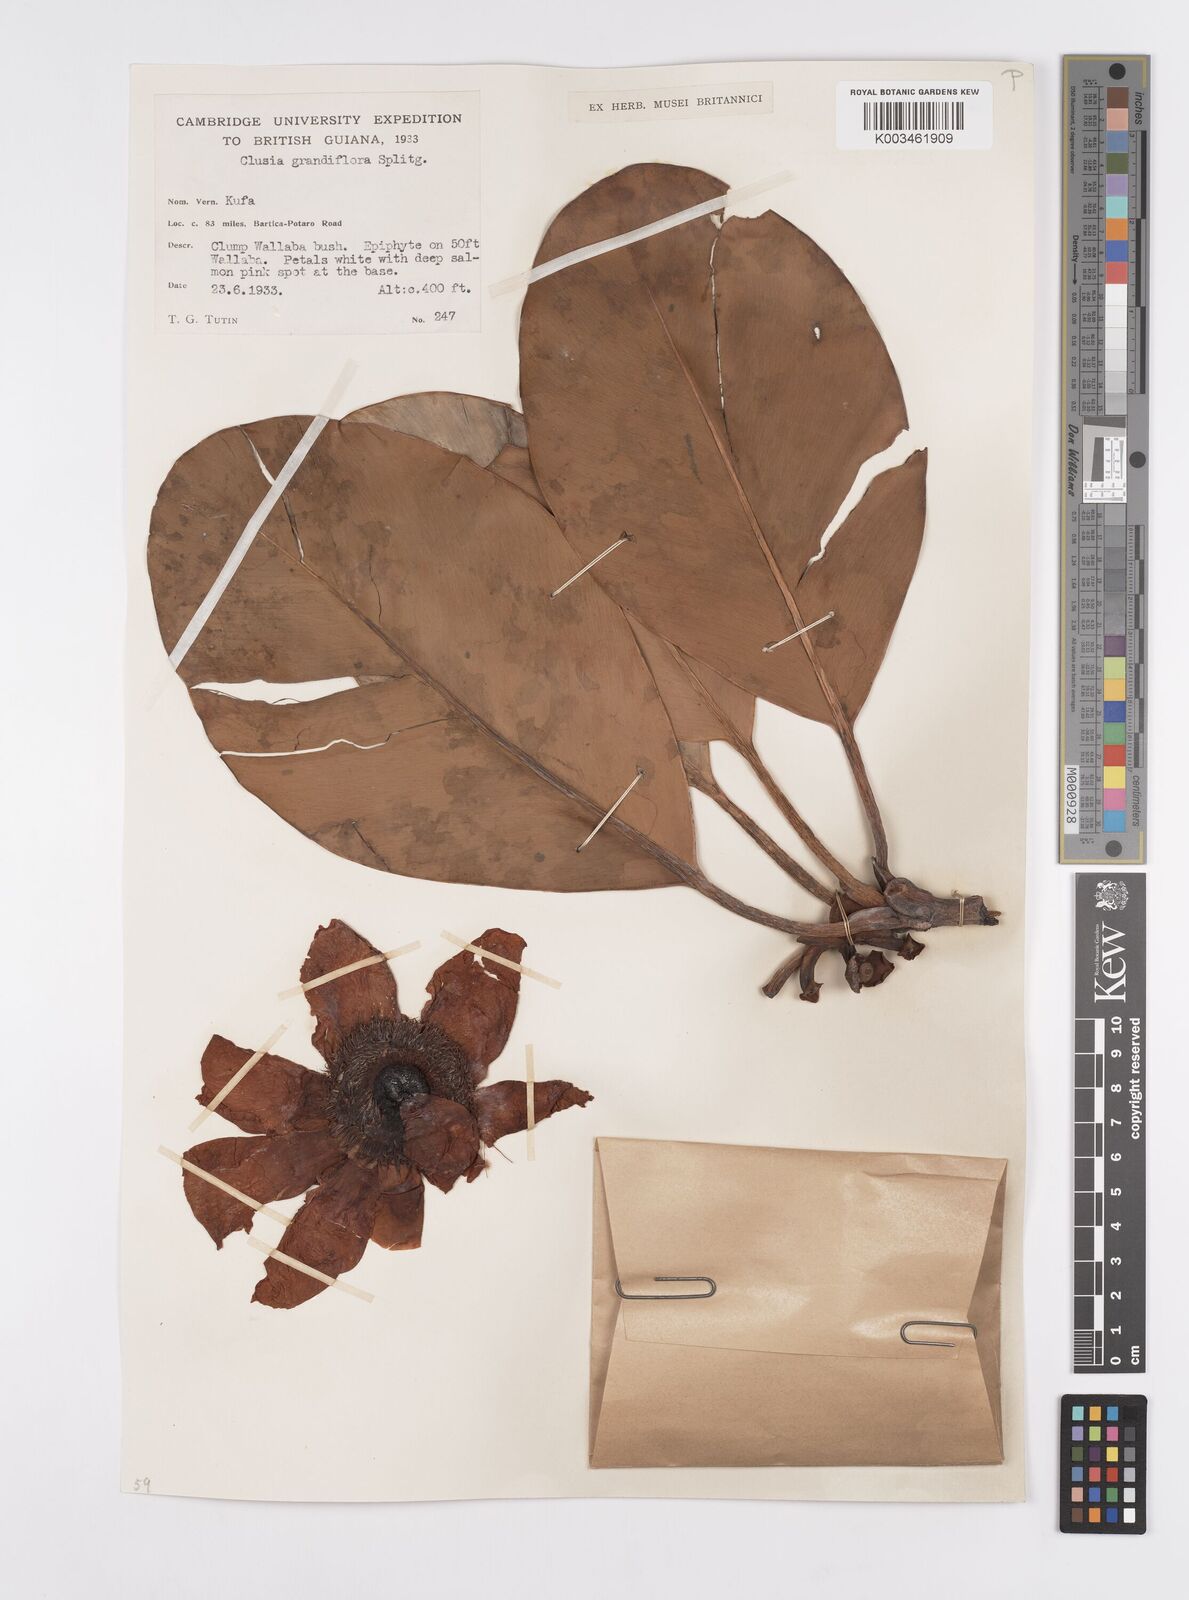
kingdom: Plantae
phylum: Tracheophyta
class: Magnoliopsida
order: Malpighiales
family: Clusiaceae
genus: Clusia
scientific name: Clusia grandiflora
